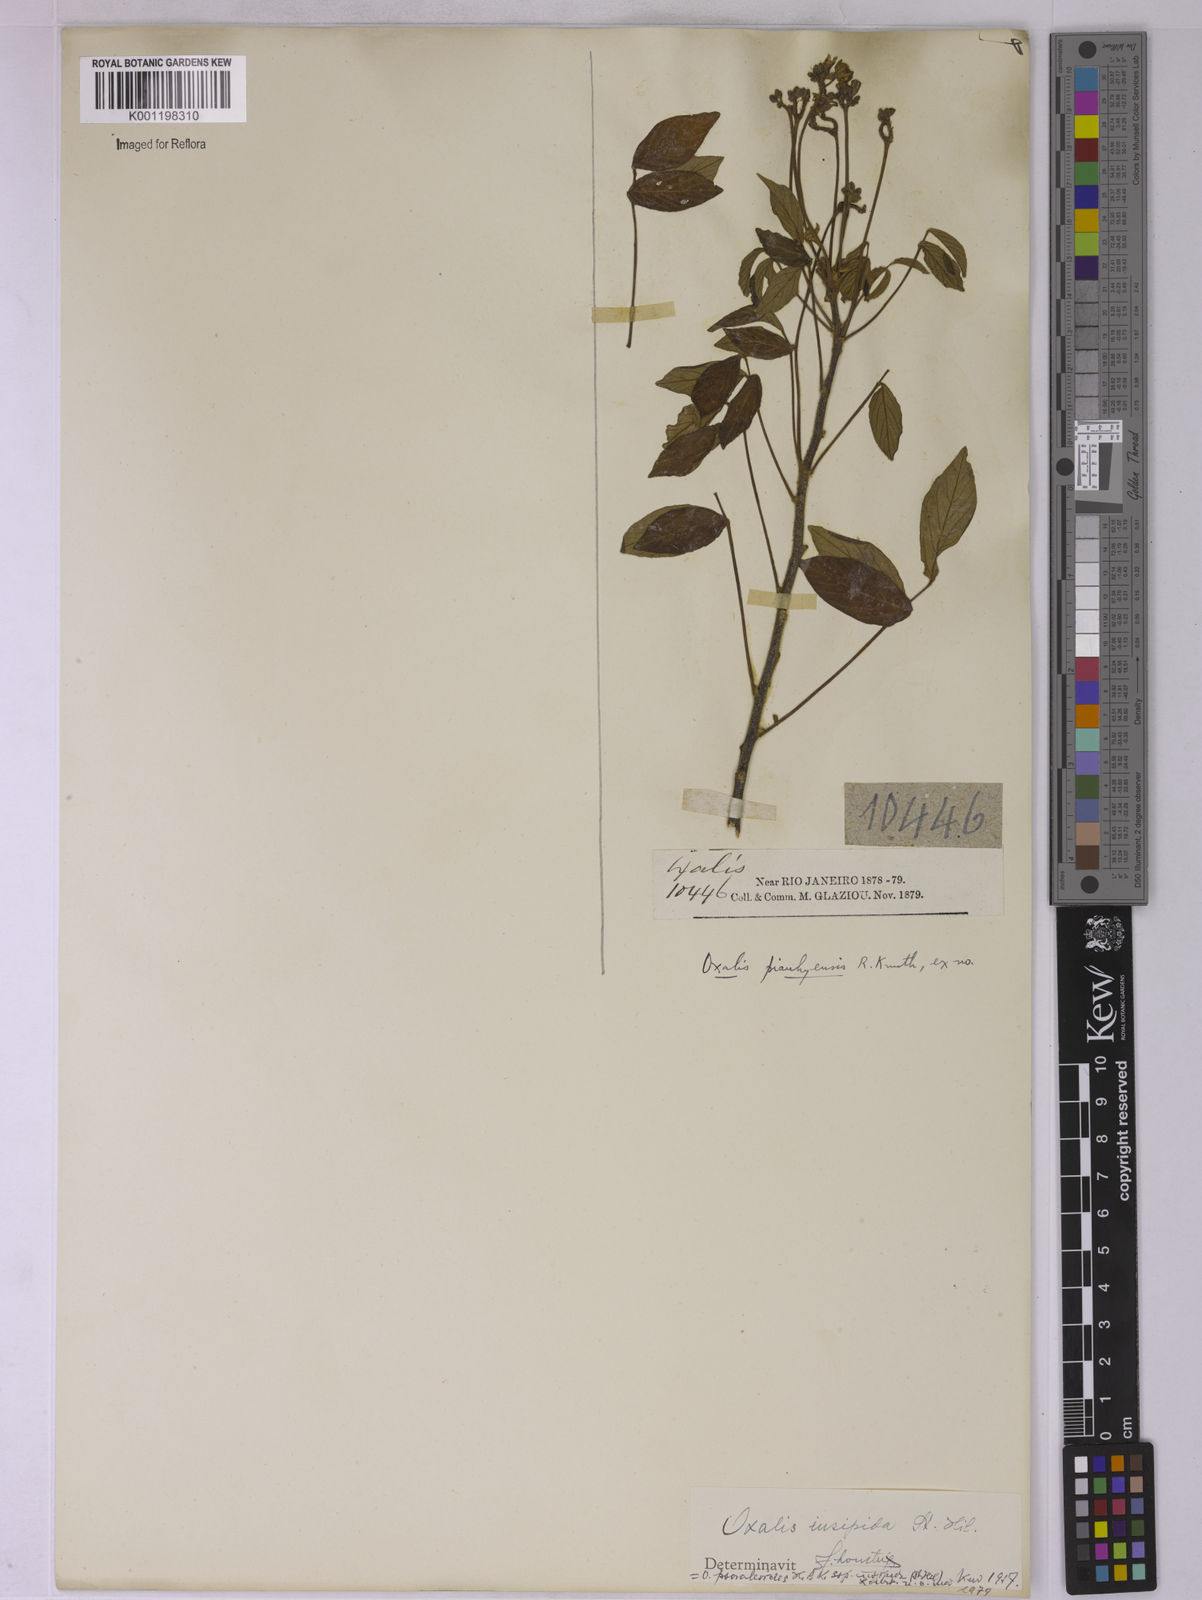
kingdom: Plantae
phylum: Tracheophyta
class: Magnoliopsida
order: Oxalidales
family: Oxalidaceae
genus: Oxalis
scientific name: Oxalis psoraleoides
